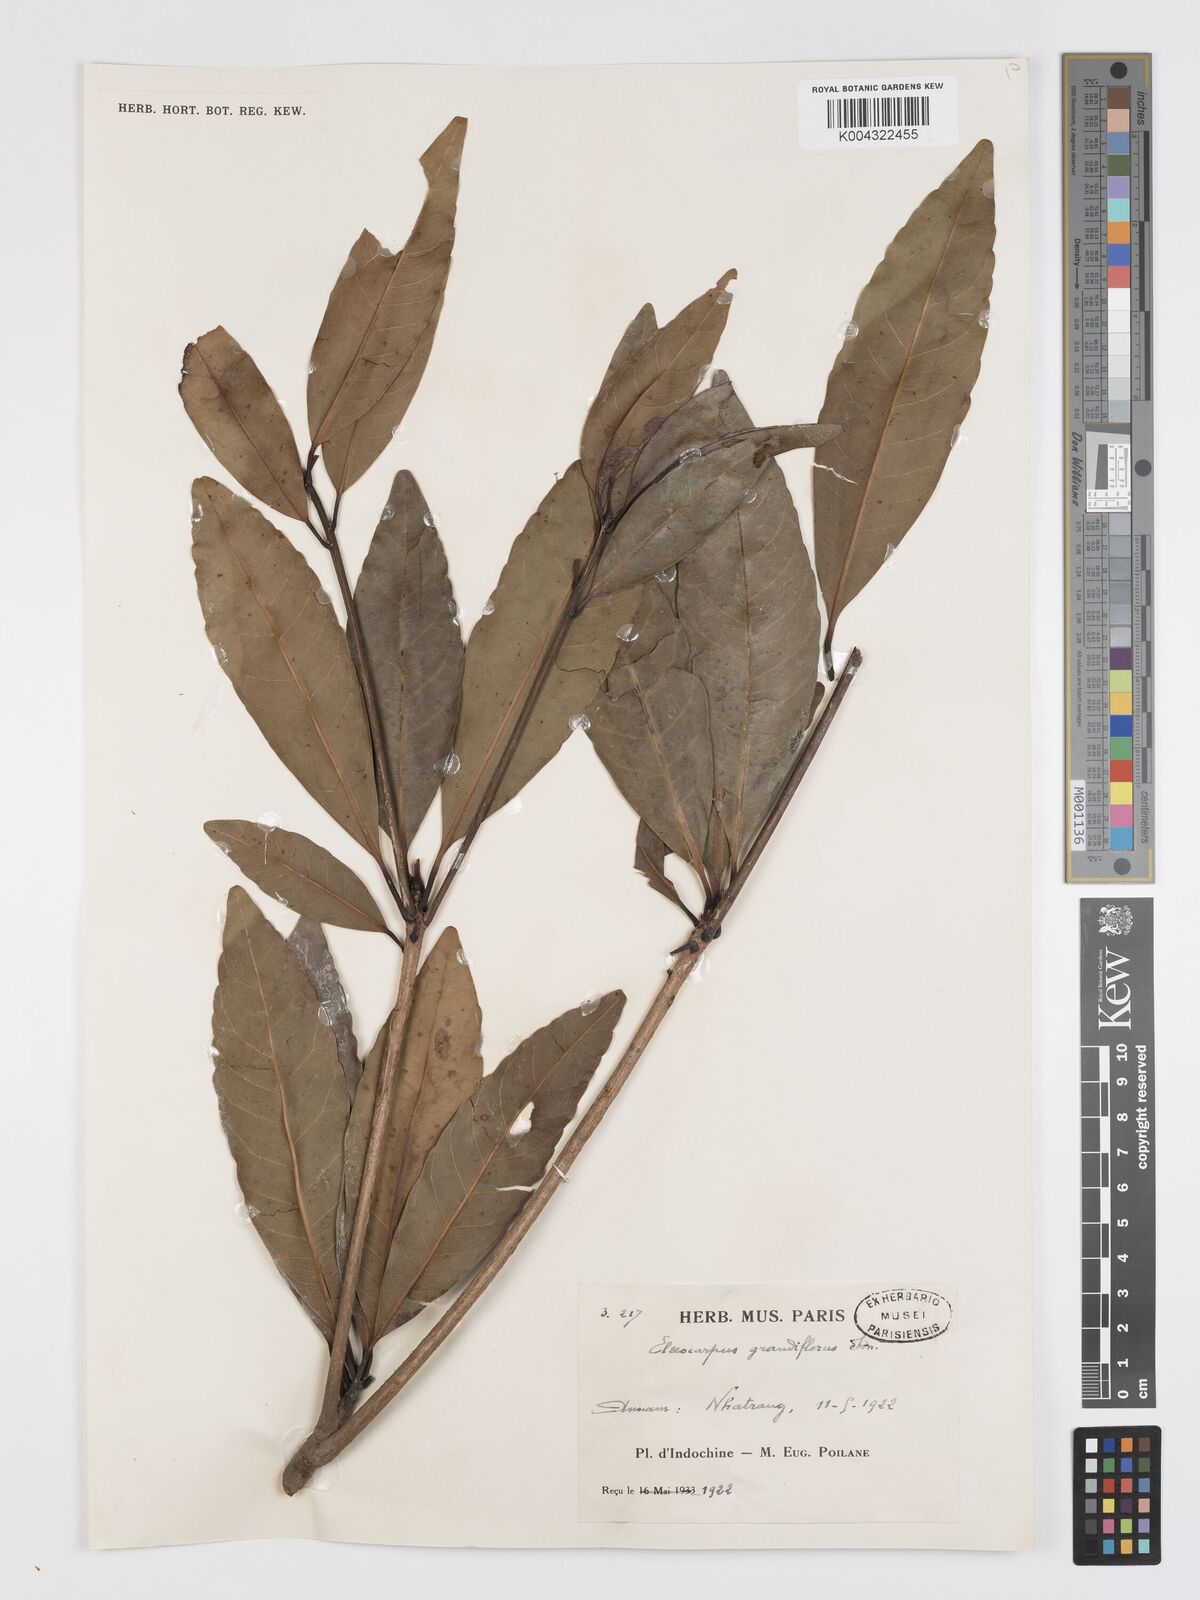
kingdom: Plantae
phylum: Tracheophyta
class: Magnoliopsida
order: Oxalidales
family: Elaeocarpaceae
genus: Elaeocarpus
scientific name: Elaeocarpus grandiflorus
